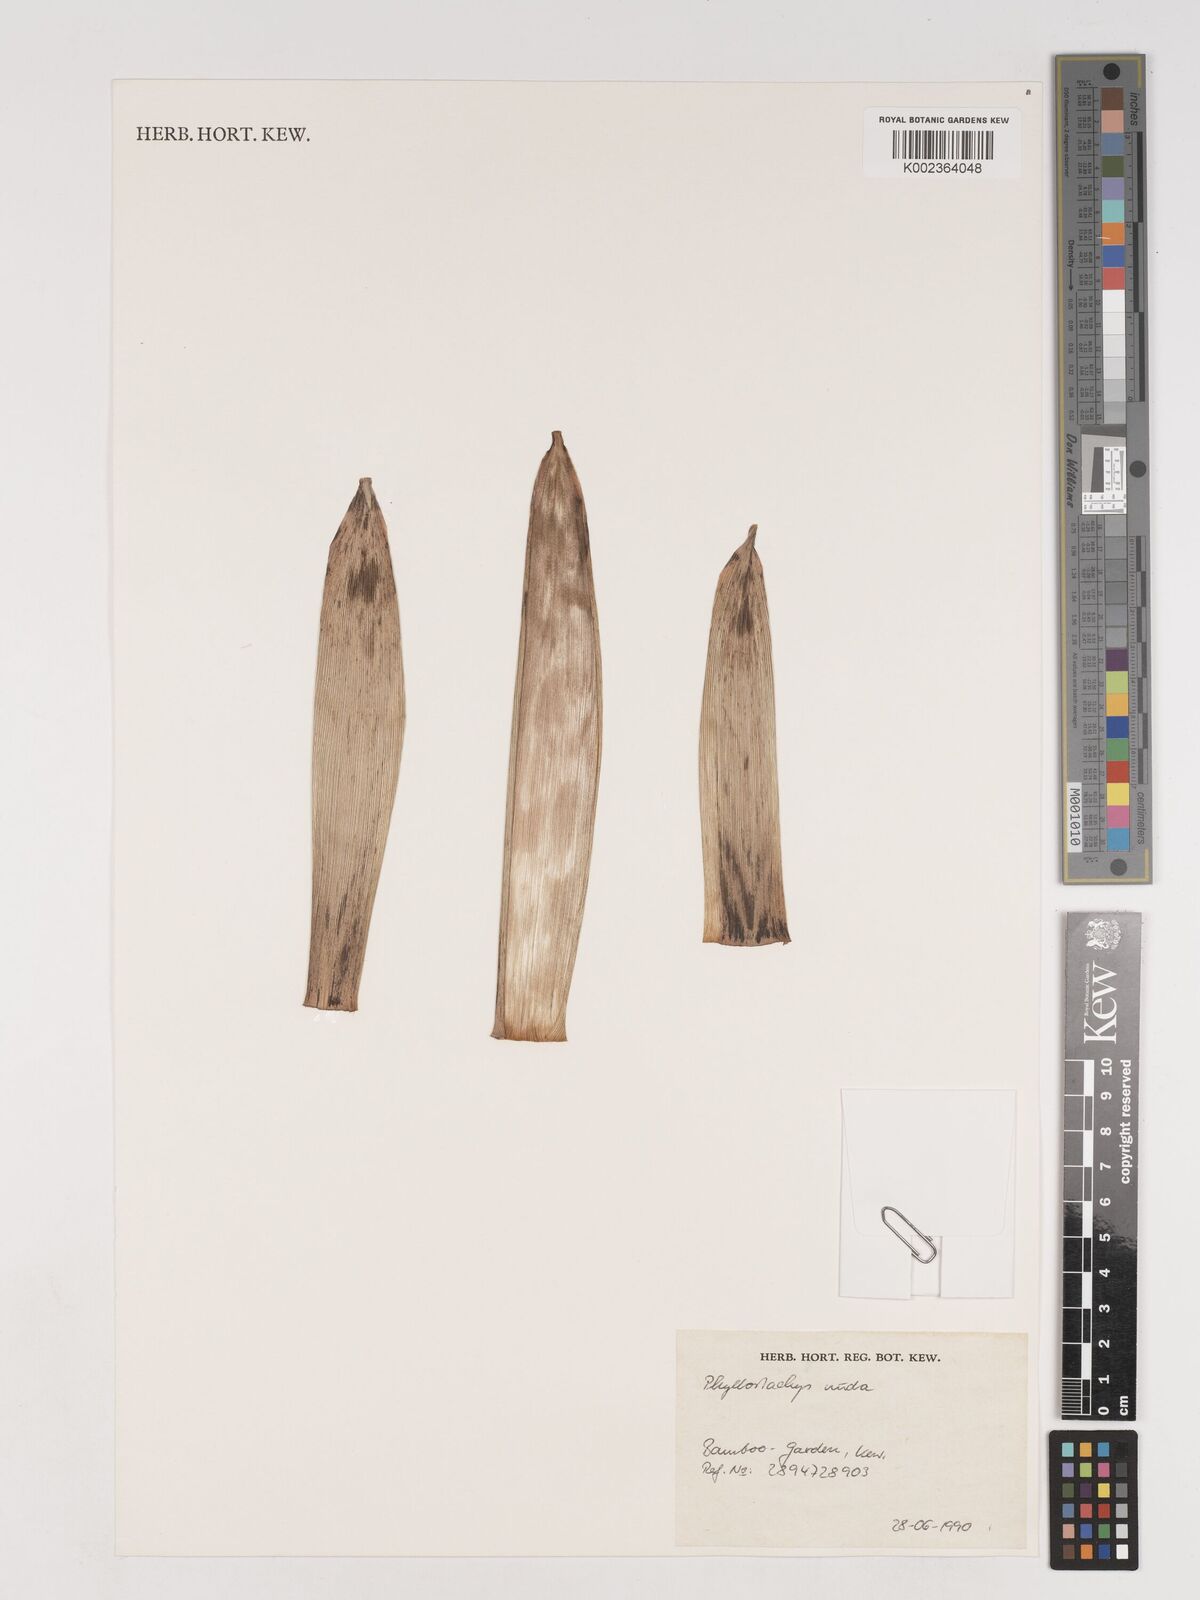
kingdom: Plantae
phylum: Tracheophyta
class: Liliopsida
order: Poales
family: Poaceae
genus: Phyllostachys
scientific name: Phyllostachys nuda
